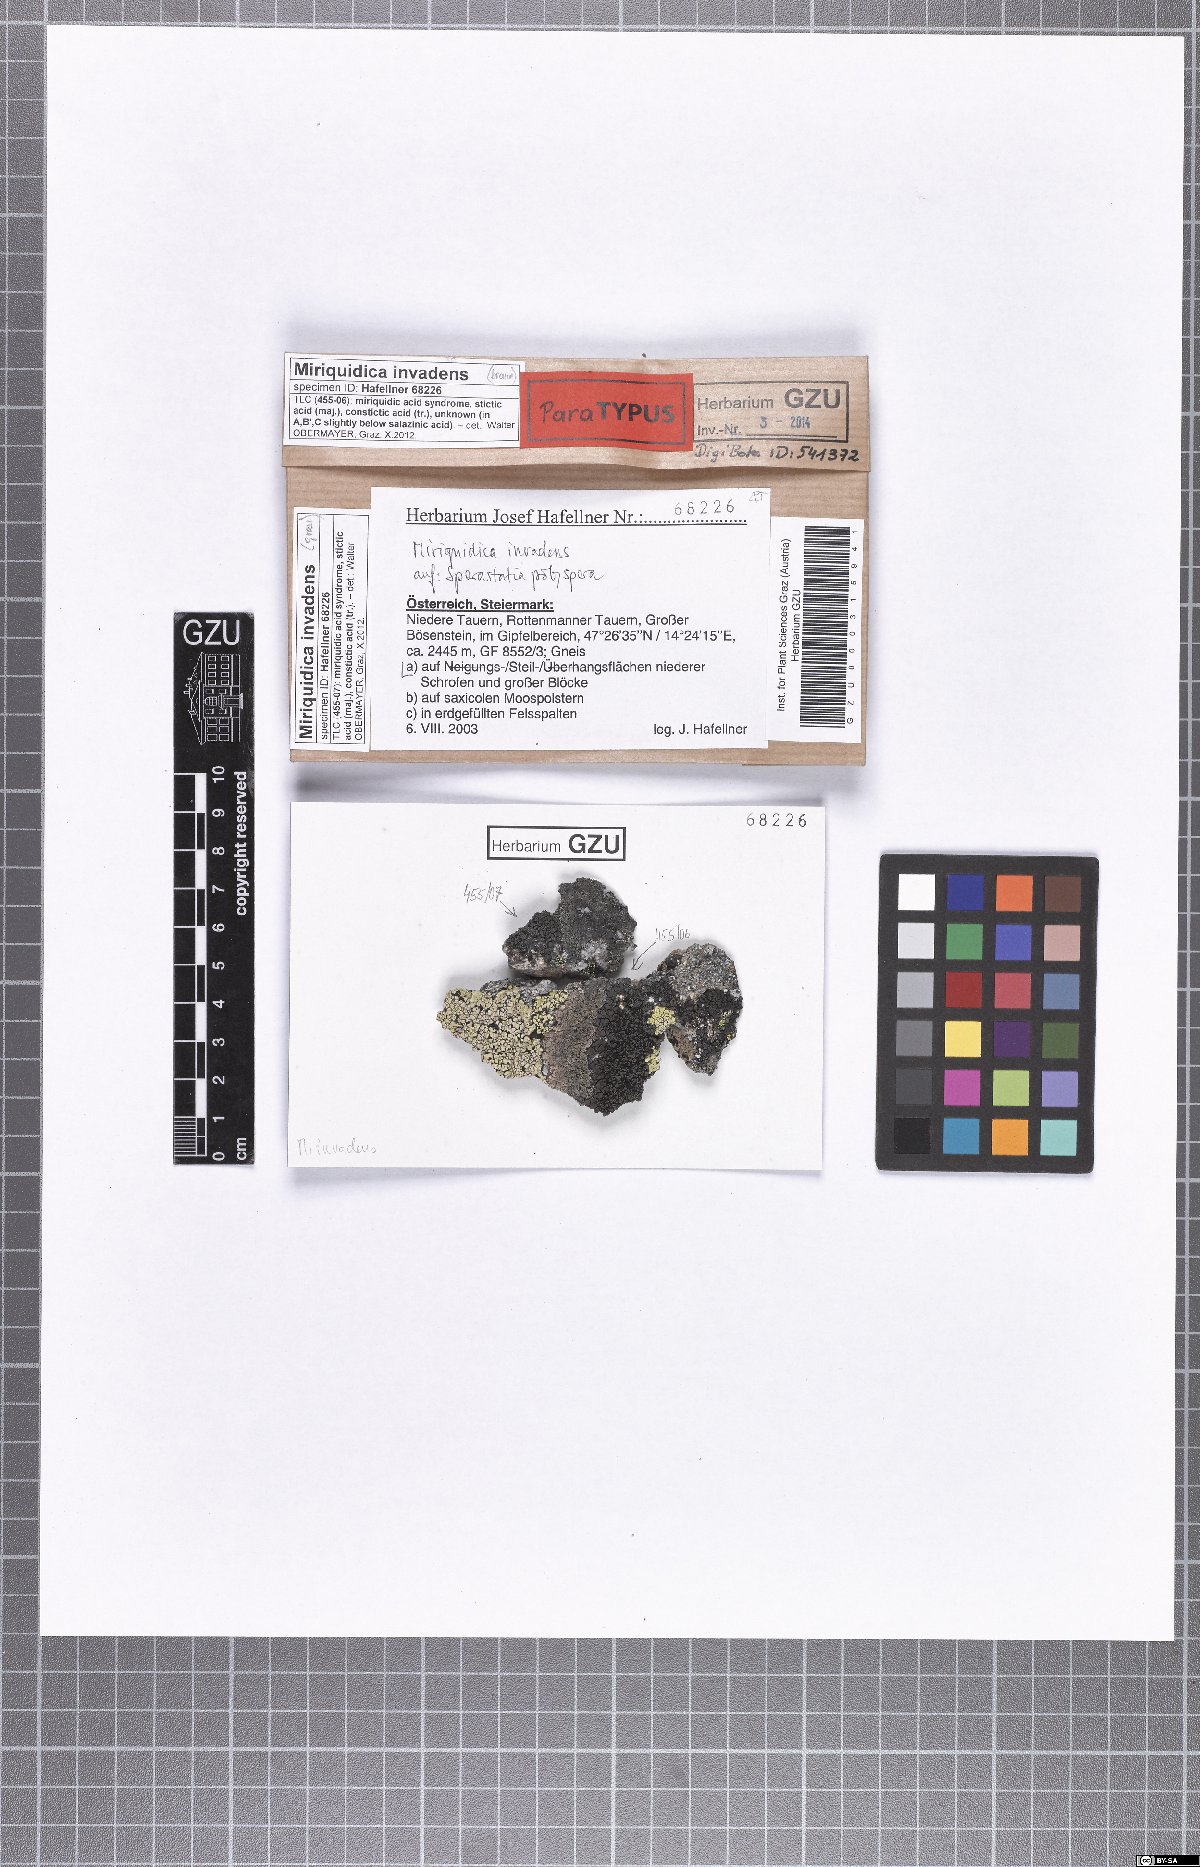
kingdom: Fungi
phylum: Ascomycota
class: Lecanoromycetes
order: Lecanorales
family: Lecanoraceae
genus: Miriquidica
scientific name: Miriquidica invadens
